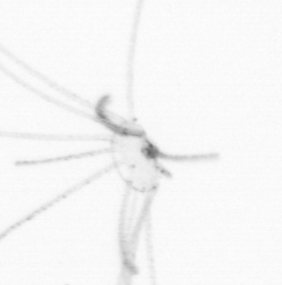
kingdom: Animalia
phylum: Cnidaria
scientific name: Cnidaria
